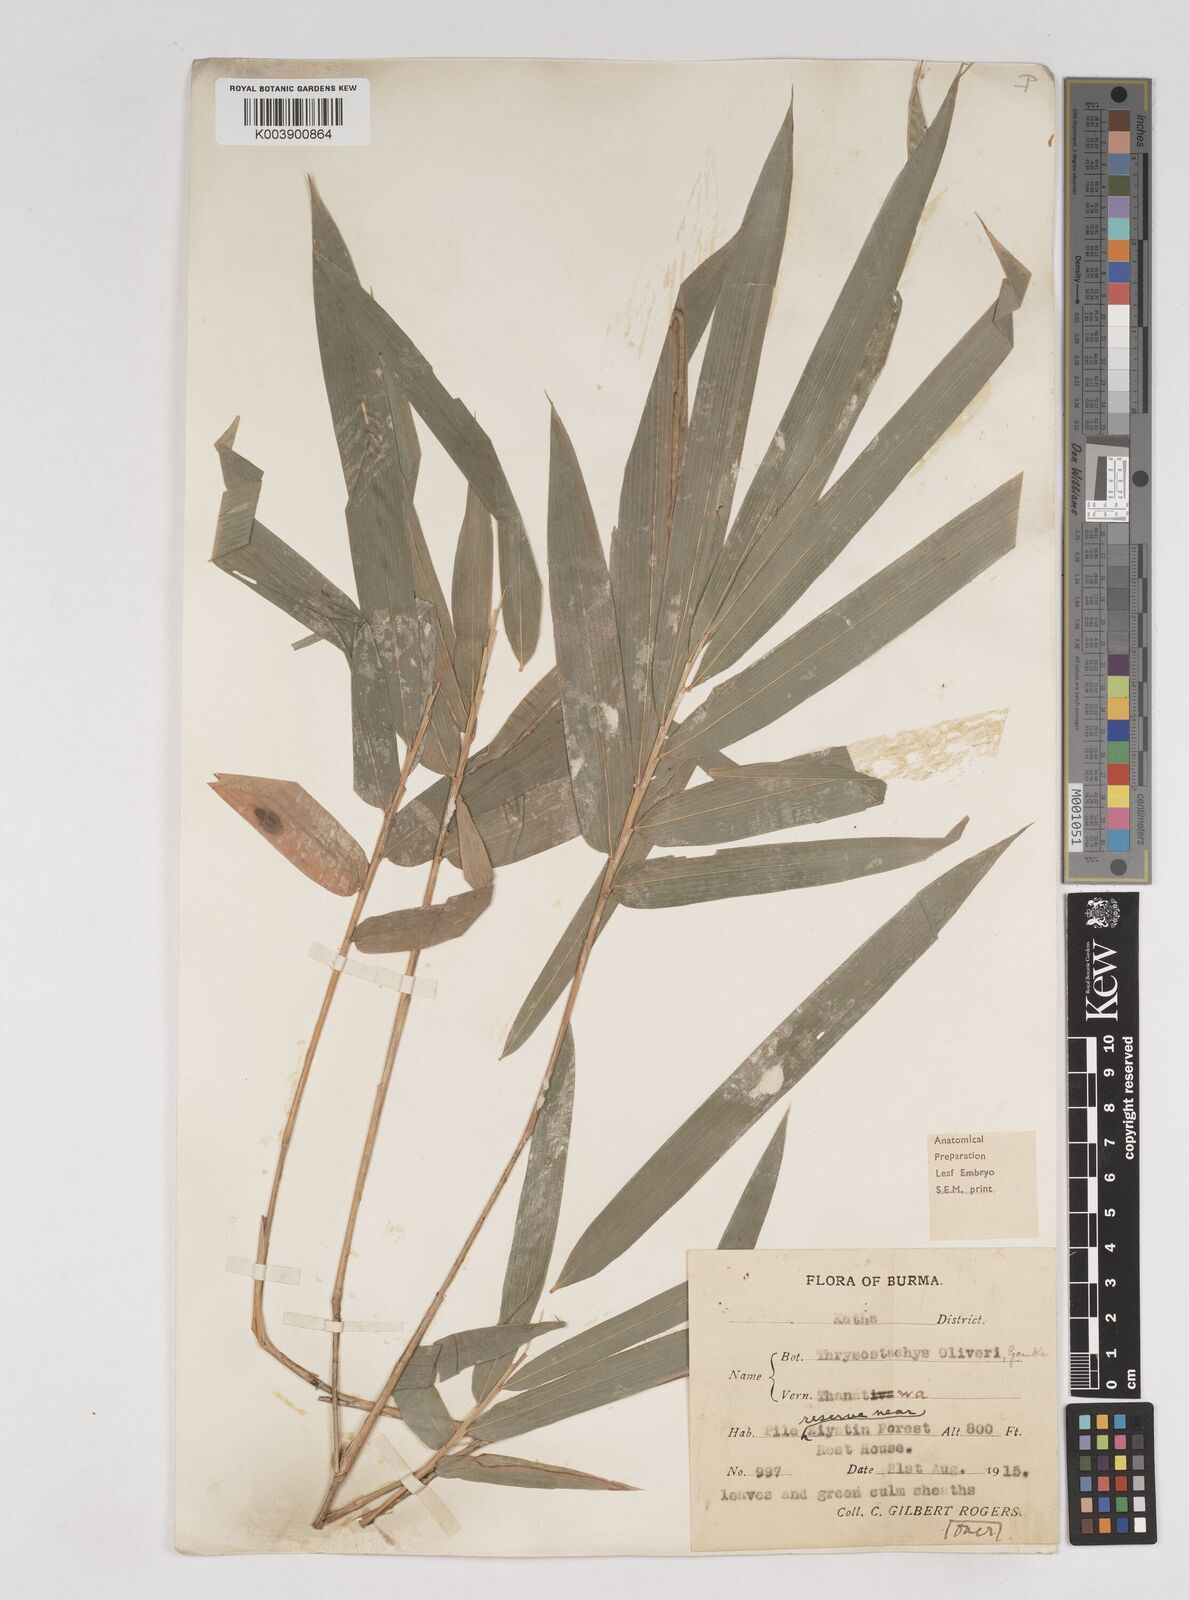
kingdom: Plantae
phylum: Tracheophyta
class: Liliopsida
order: Poales
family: Poaceae
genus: Thyrsostachys
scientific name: Thyrsostachys oliveri
